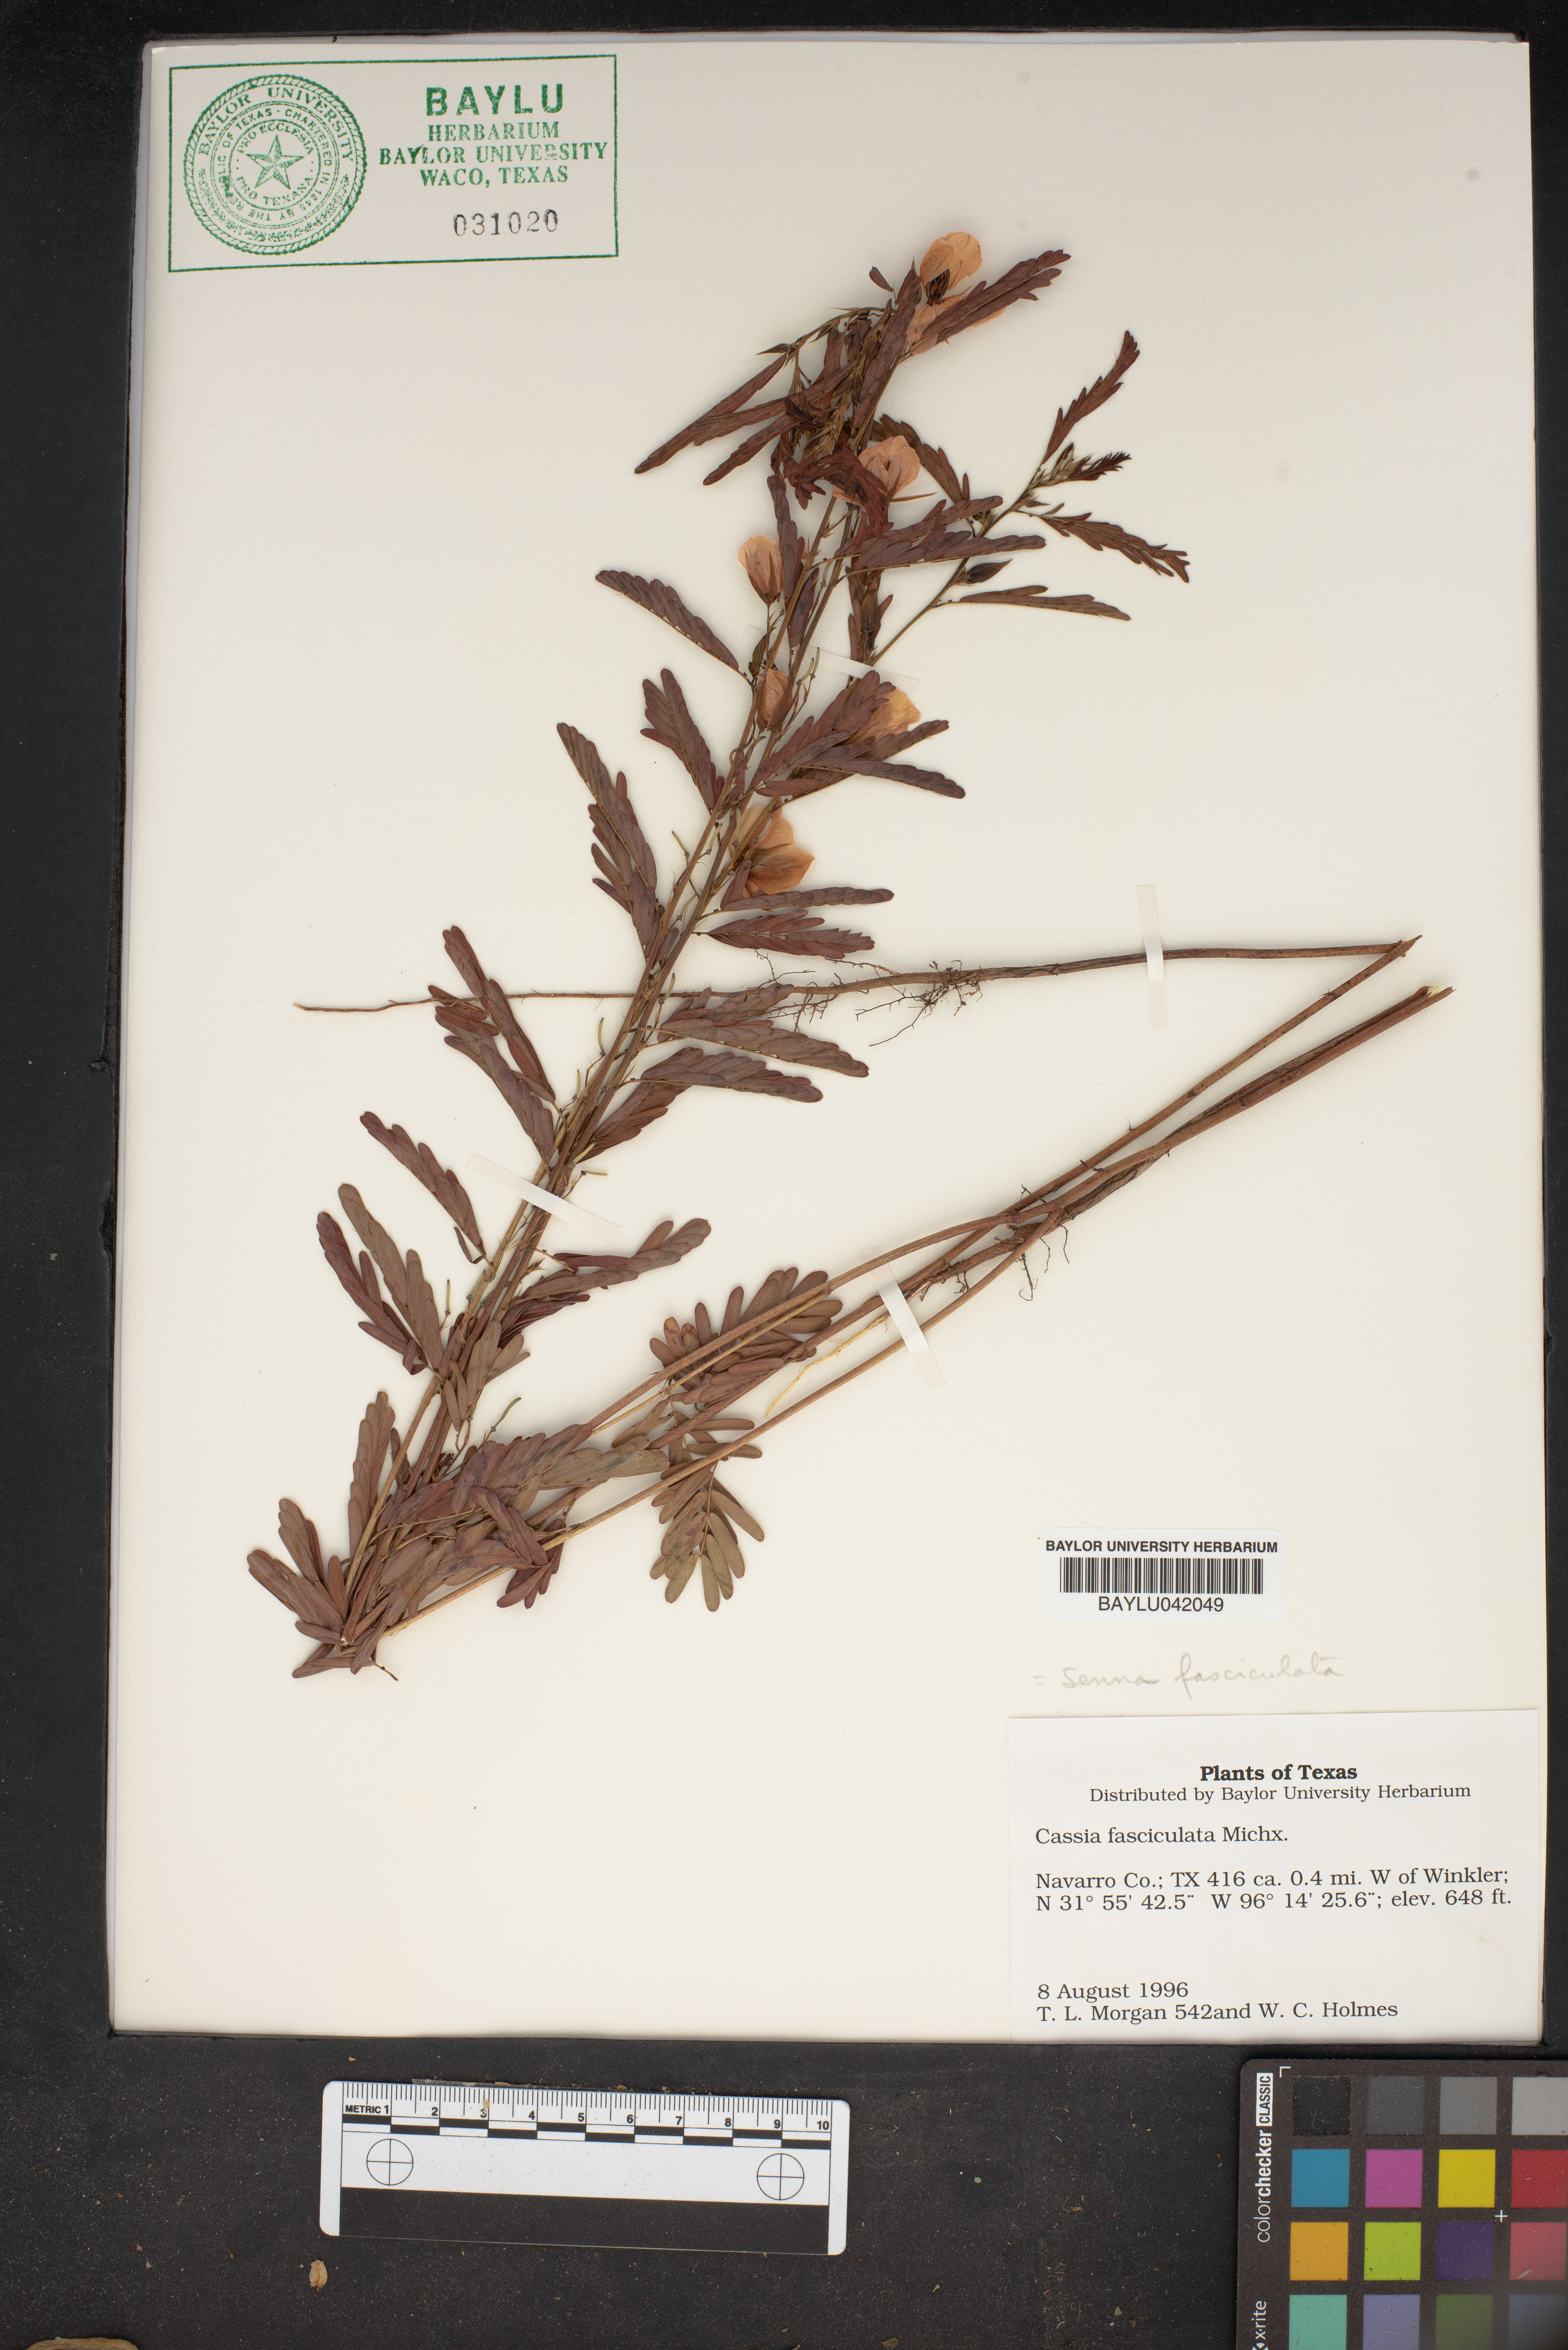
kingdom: Plantae
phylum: Tracheophyta
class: Magnoliopsida
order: Fabales
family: Fabaceae
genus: Chamaecrista
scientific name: Chamaecrista fasciculata
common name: Golden cassia
